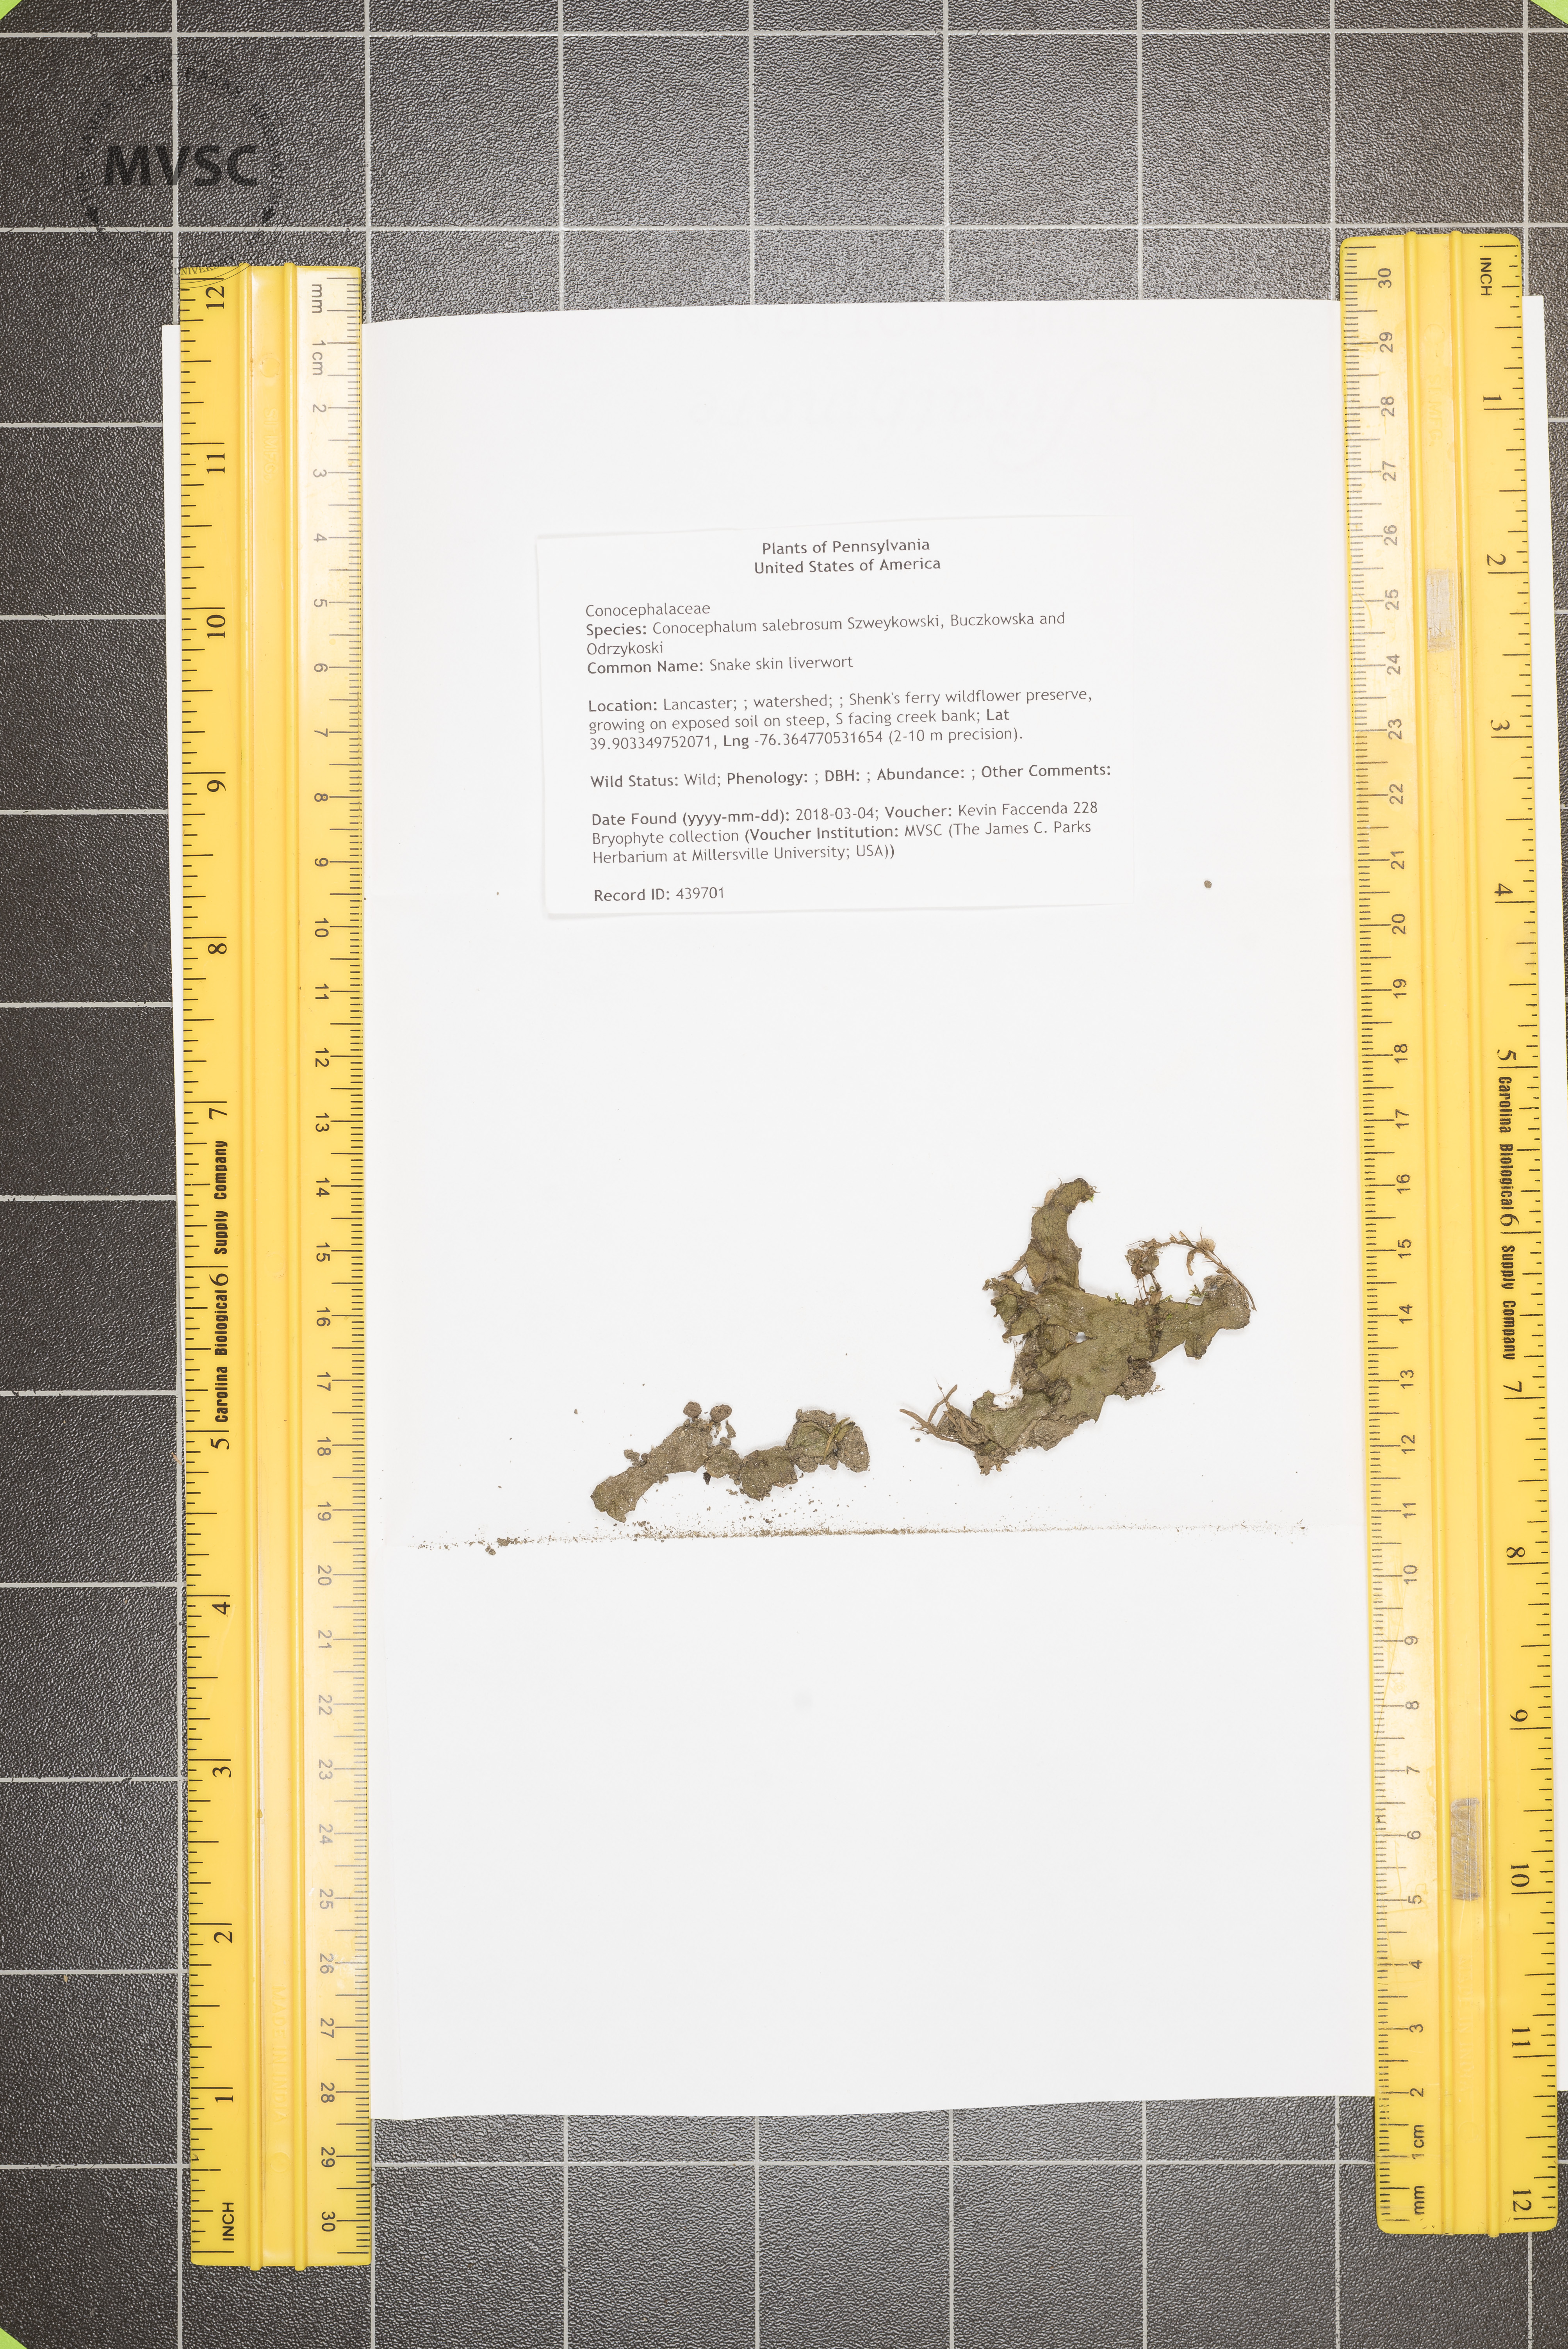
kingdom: Plantae
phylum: Marchantiophyta
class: Marchantiopsida
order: Marchantiales
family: Conocephalaceae
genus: Conocephalum
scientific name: Conocephalum salebrosum
